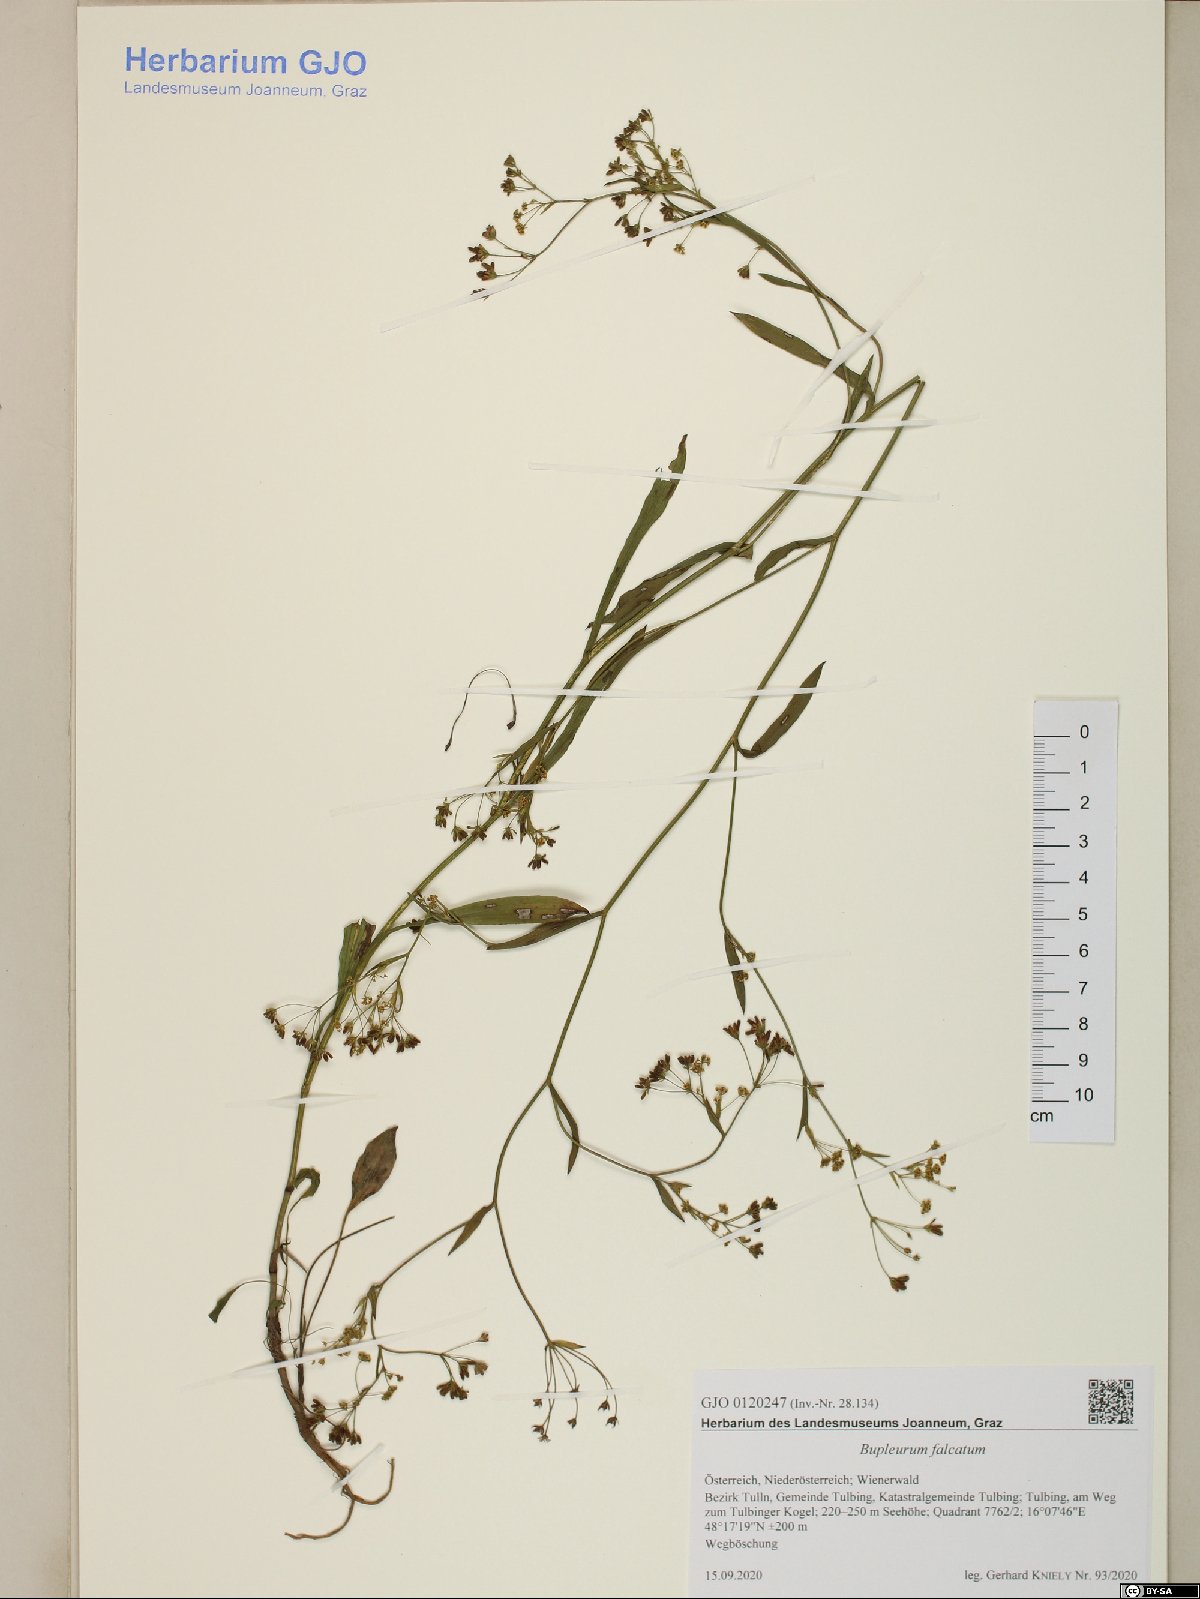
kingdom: Plantae
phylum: Tracheophyta
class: Magnoliopsida
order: Apiales
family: Apiaceae
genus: Bupleurum
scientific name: Bupleurum falcatum
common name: Sickle-leaved hare's-ear
